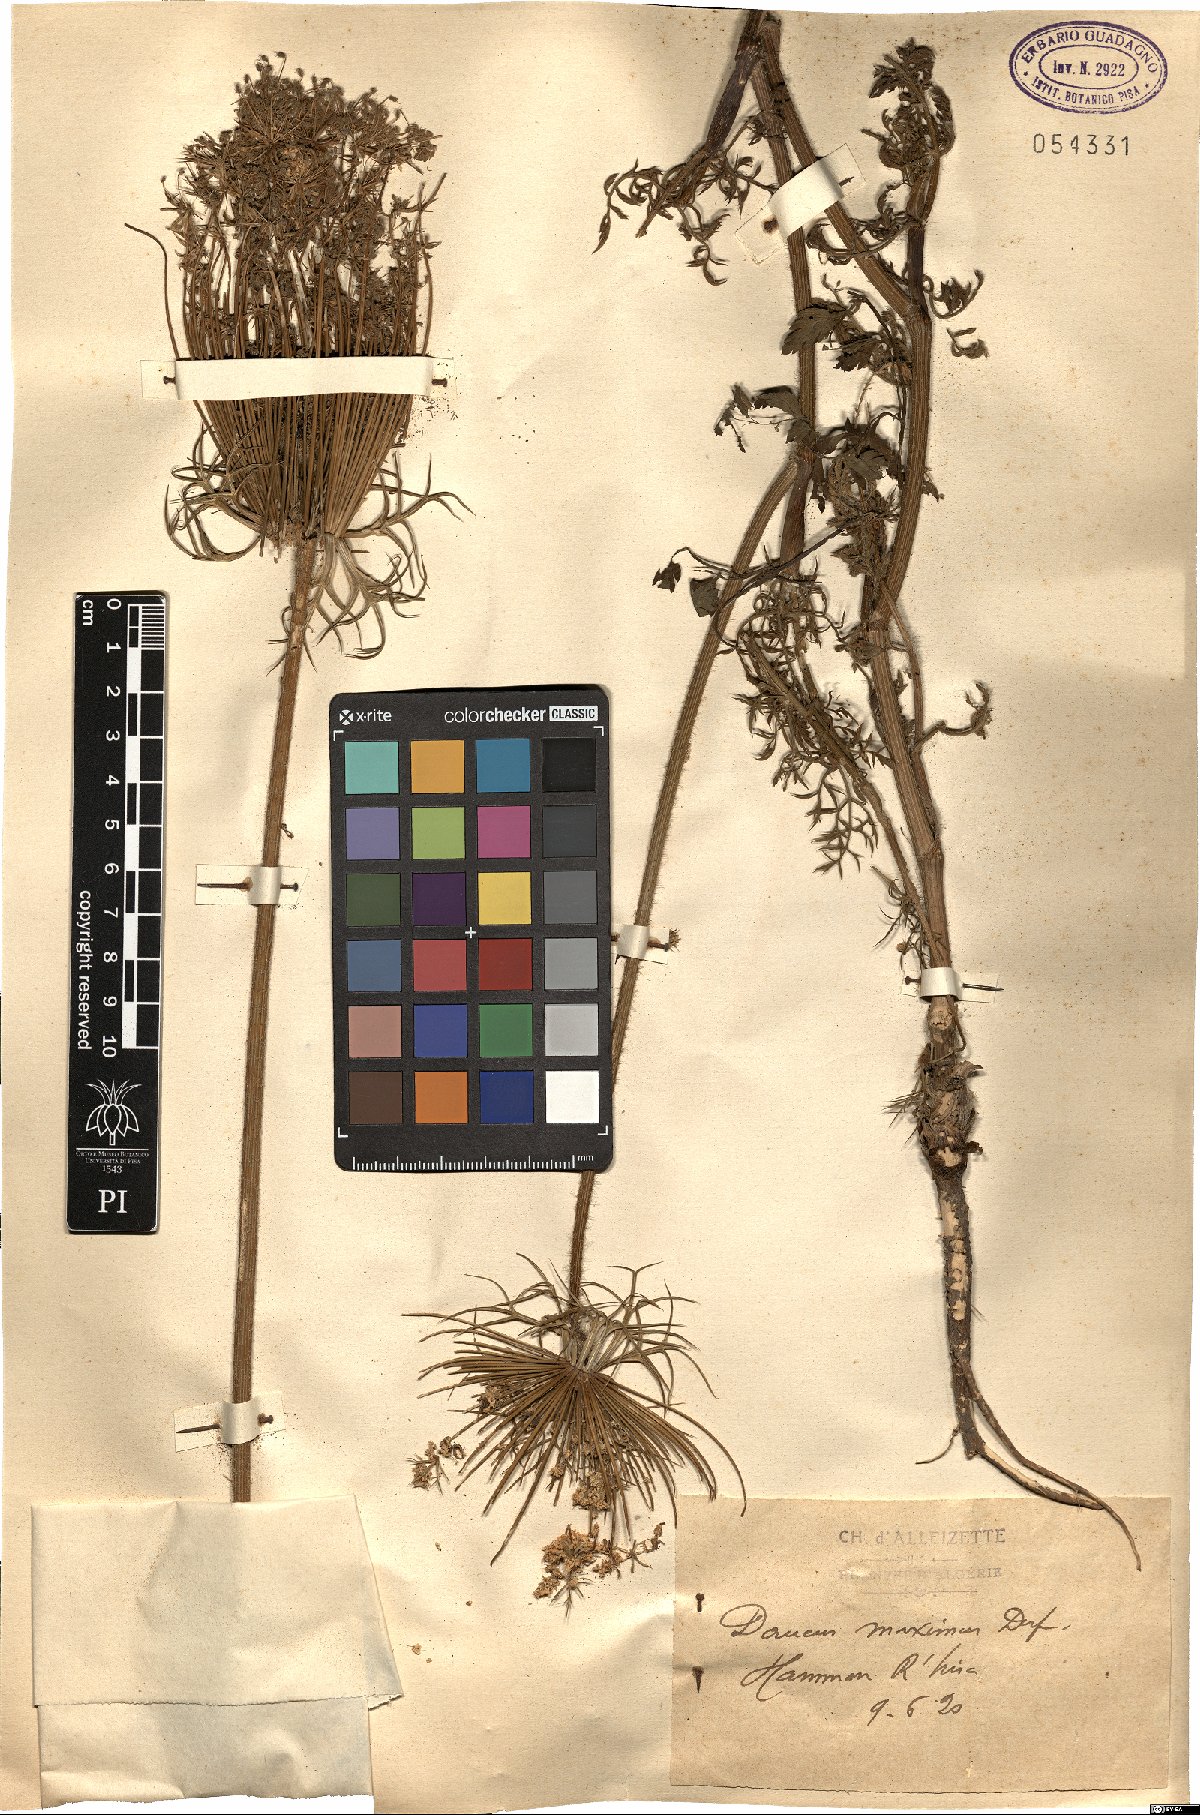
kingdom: Plantae
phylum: Tracheophyta
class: Magnoliopsida
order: Apiales
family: Apiaceae
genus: Daucus
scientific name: Daucus carota
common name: Wild carrot
